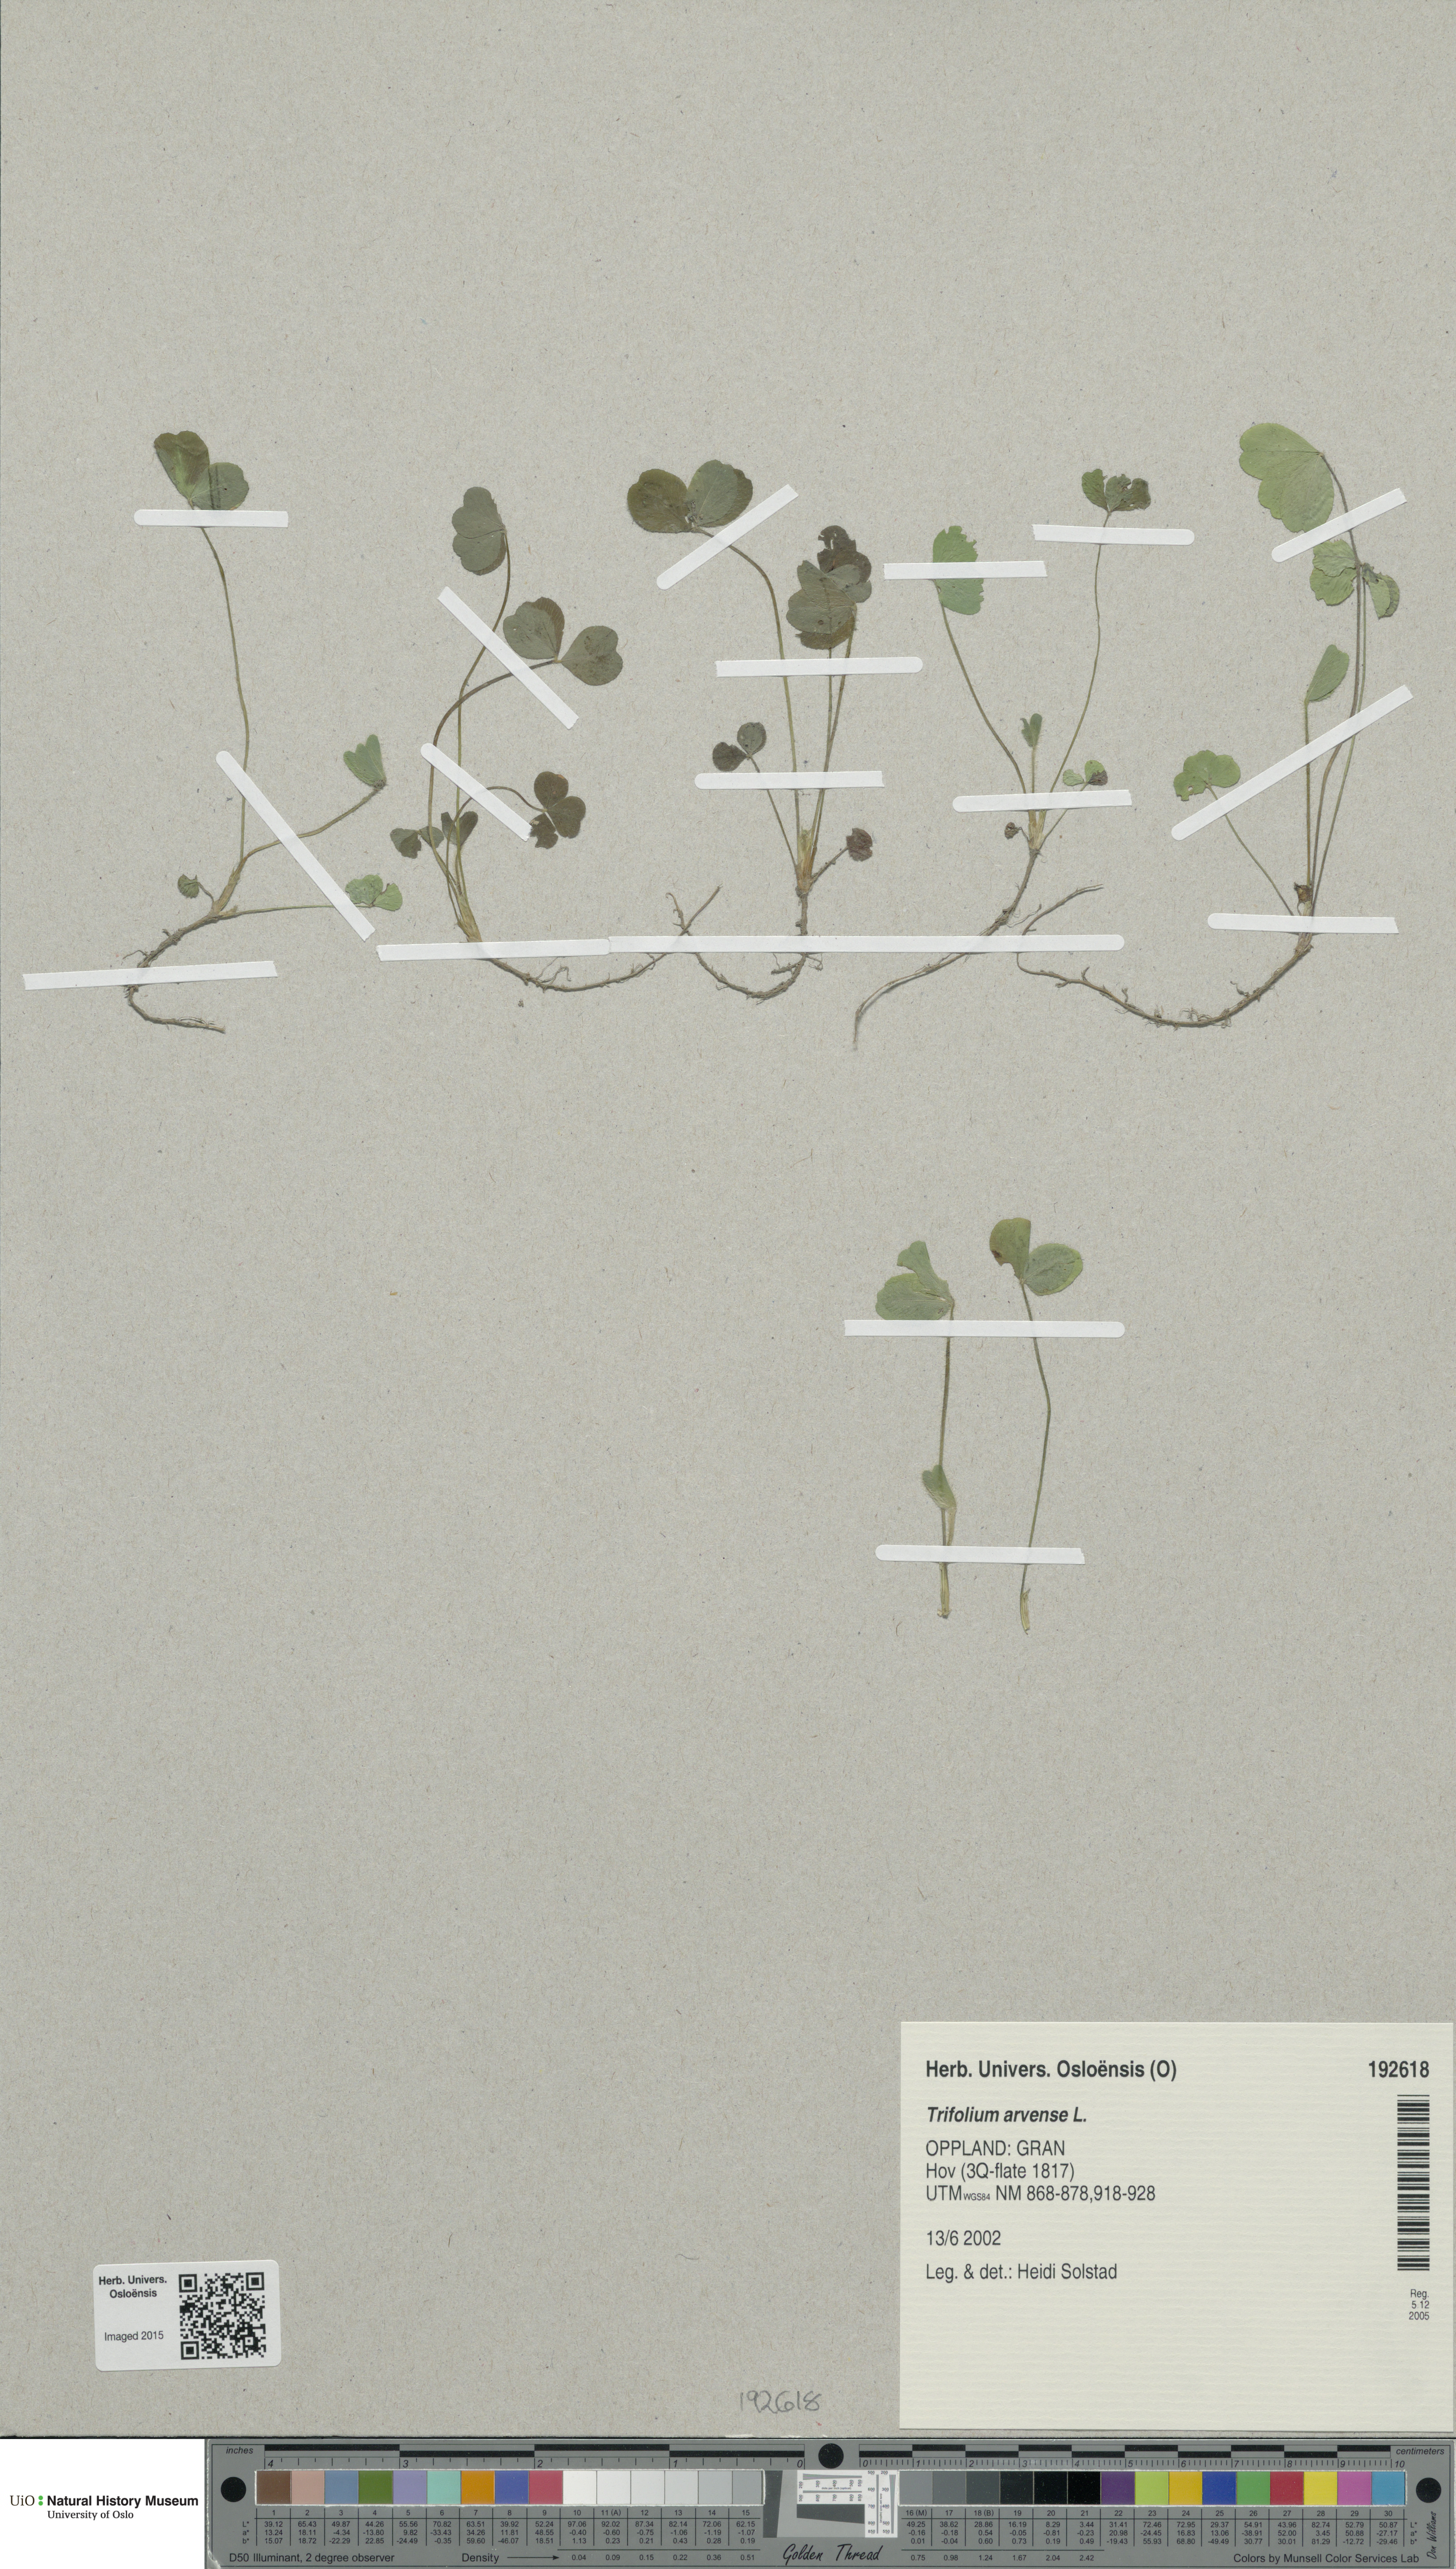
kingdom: Plantae
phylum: Tracheophyta
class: Magnoliopsida
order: Fabales
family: Fabaceae
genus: Trifolium
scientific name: Trifolium arvense
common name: Hare's-foot clover
